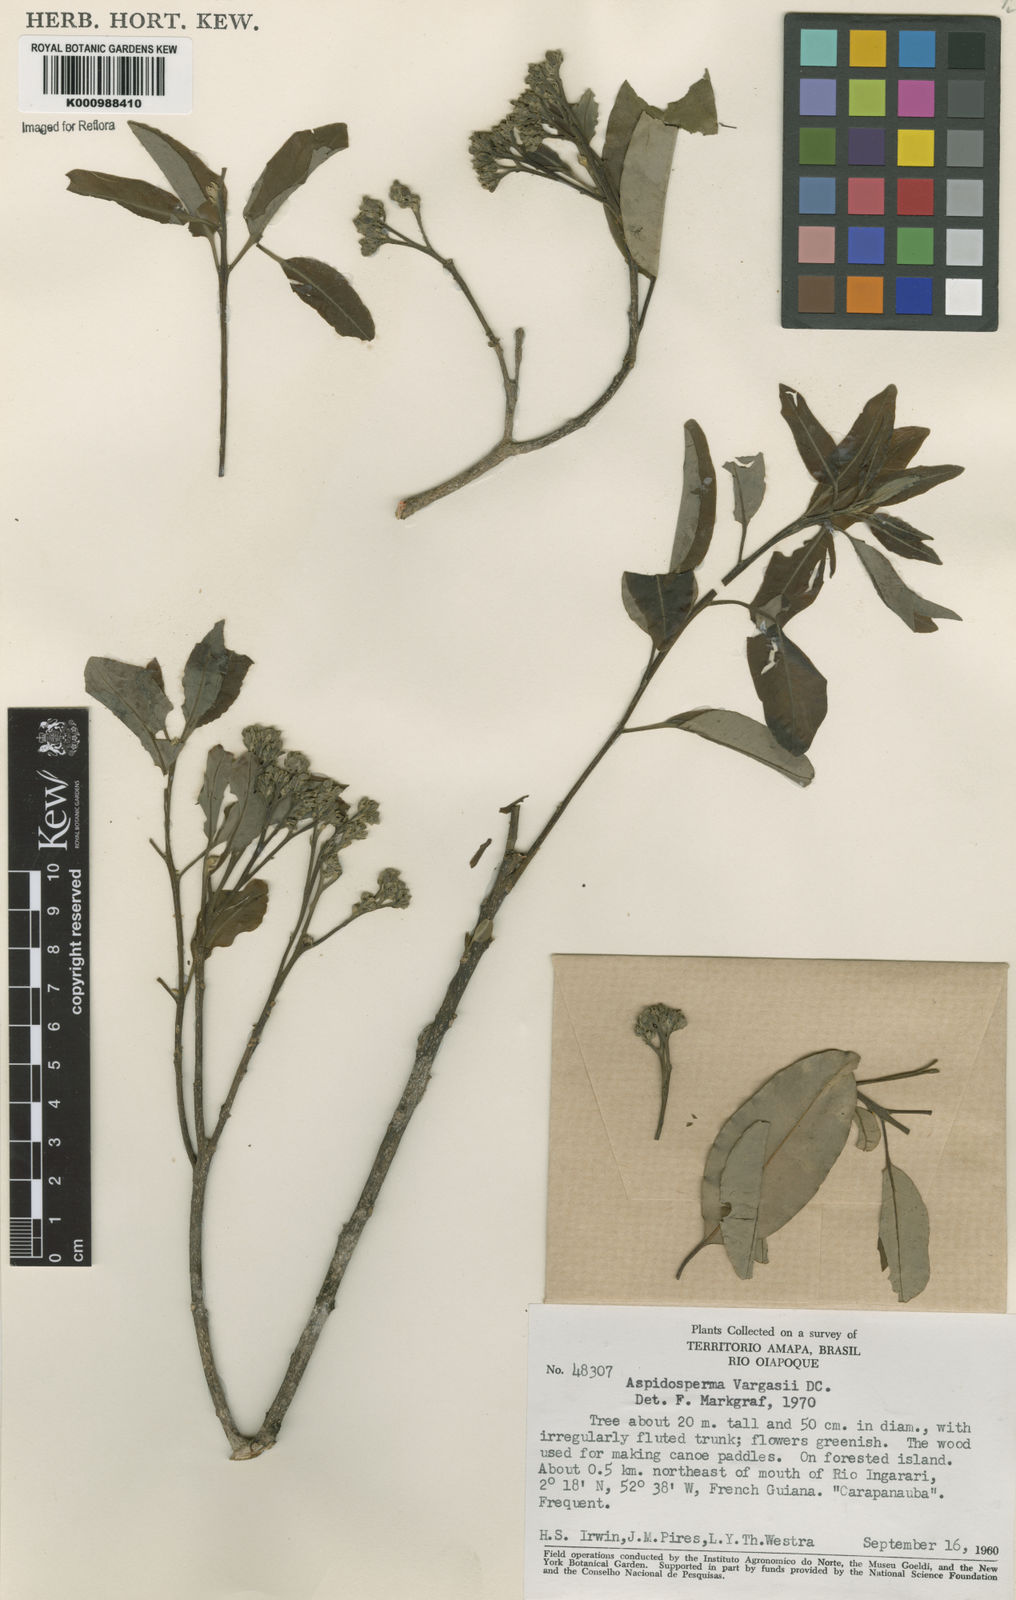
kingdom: Plantae
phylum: Tracheophyta
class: Magnoliopsida
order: Gentianales
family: Apocynaceae
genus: Aspidosperma
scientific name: Aspidosperma parvifolium
